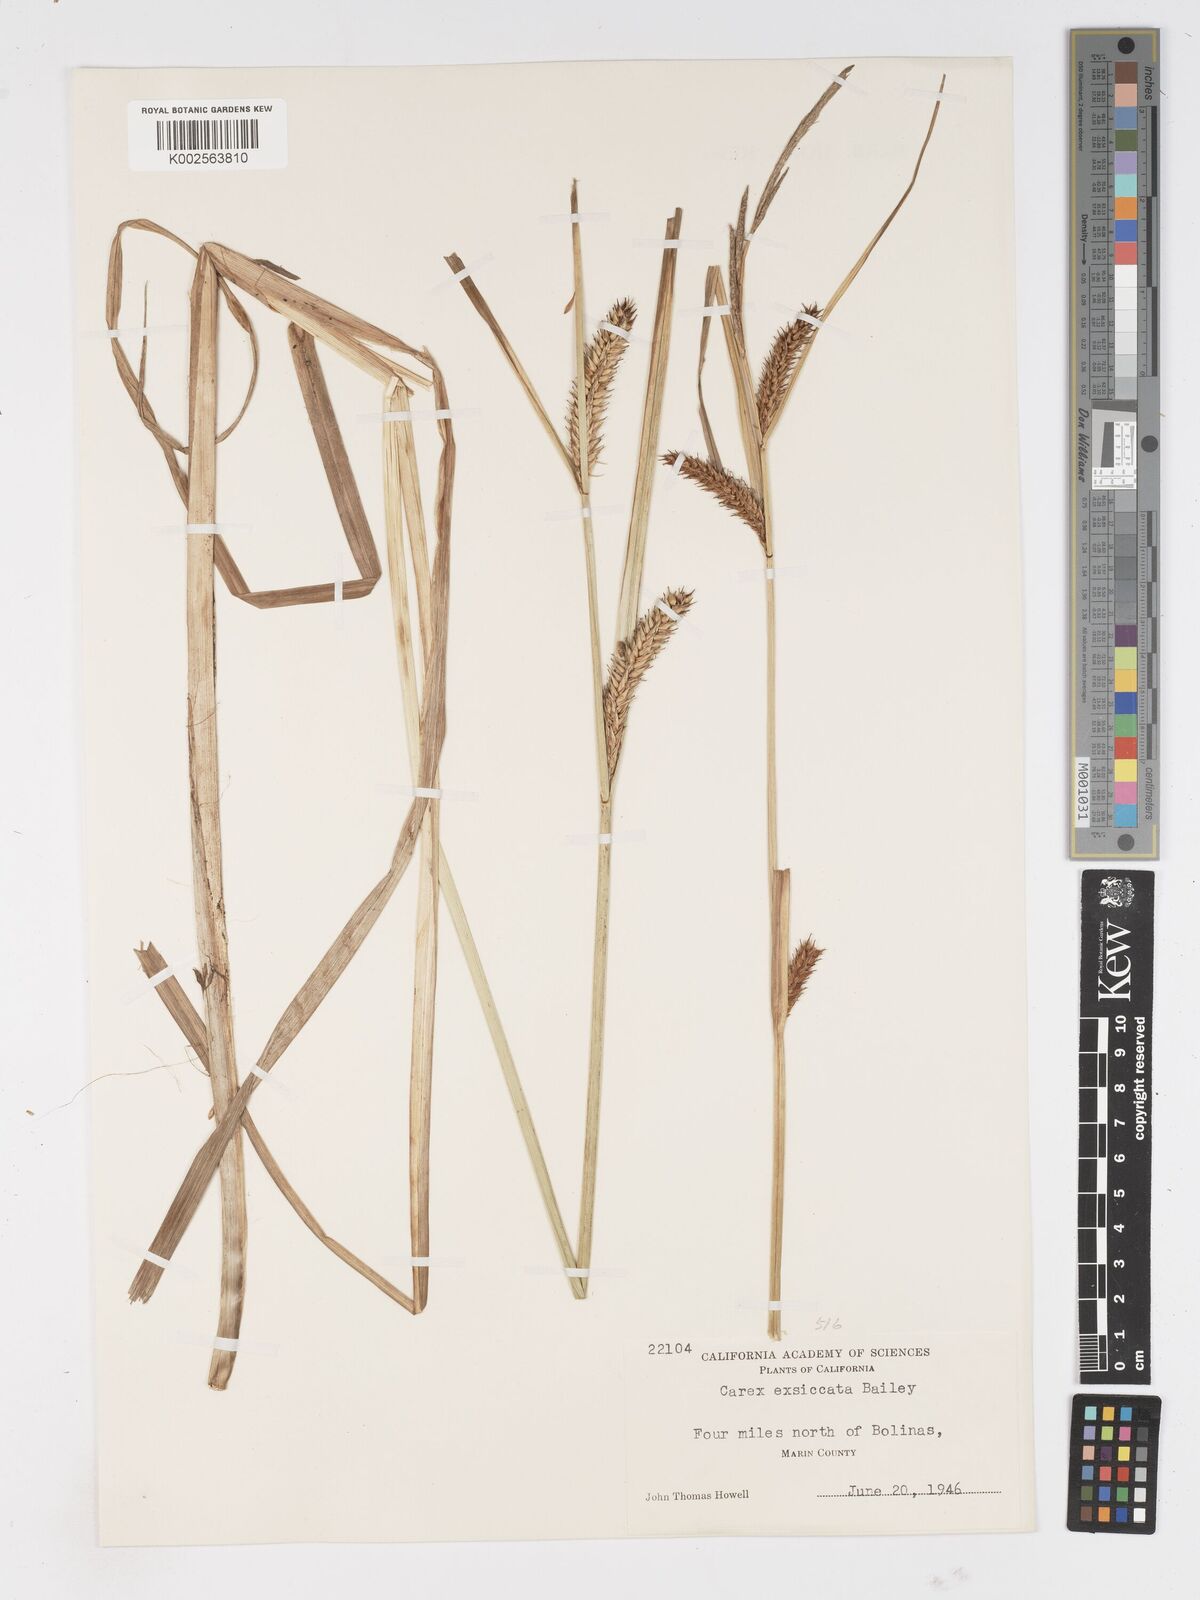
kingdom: Plantae
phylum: Tracheophyta
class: Liliopsida
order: Poales
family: Cyperaceae
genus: Carex
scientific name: Carex exsiccata
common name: Beaked sedge
